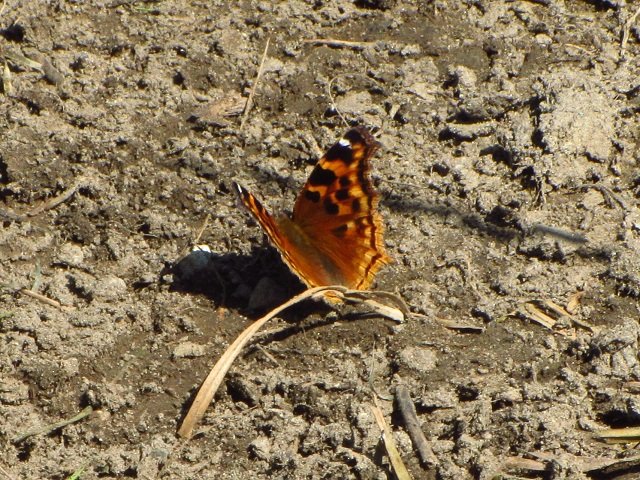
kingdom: Animalia
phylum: Arthropoda
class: Insecta
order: Lepidoptera
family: Nymphalidae
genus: Polygonia
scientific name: Polygonia vaualbum
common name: Compton Tortoiseshell
